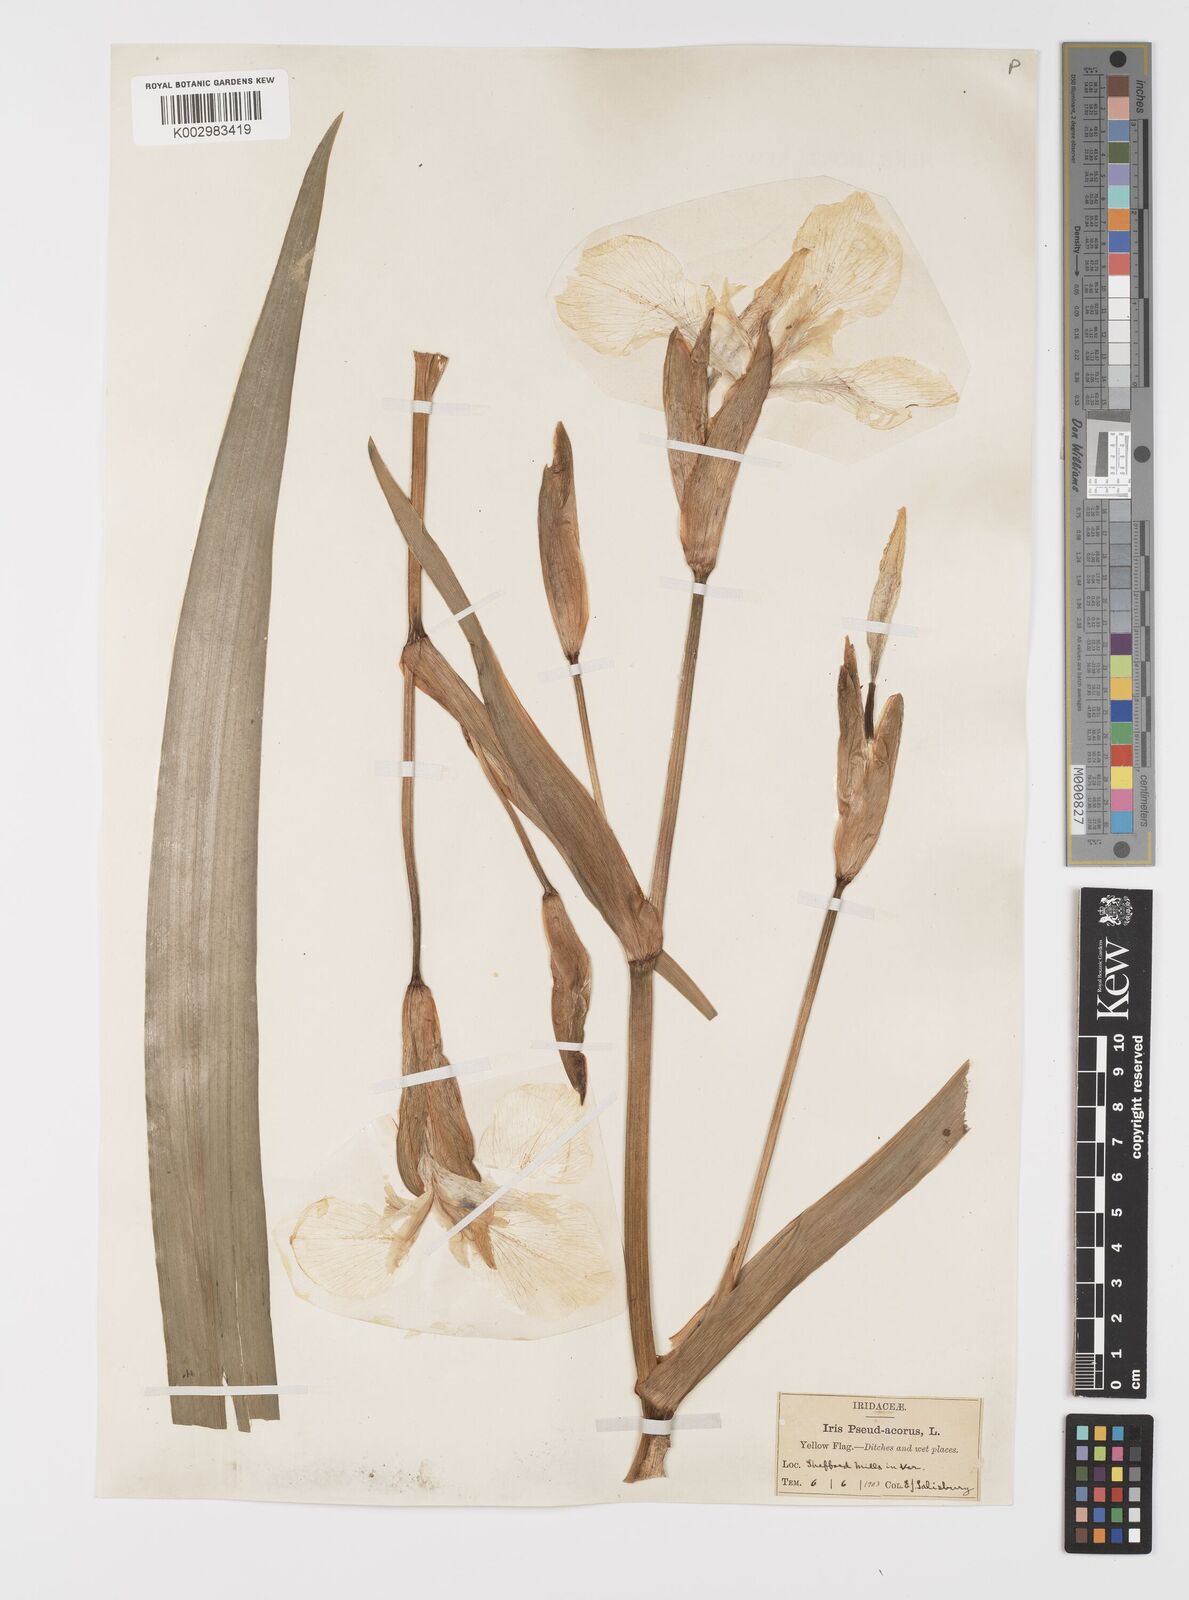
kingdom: Plantae
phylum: Tracheophyta
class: Liliopsida
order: Asparagales
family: Iridaceae
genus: Iris
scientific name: Iris pseudacorus
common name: Yellow flag
